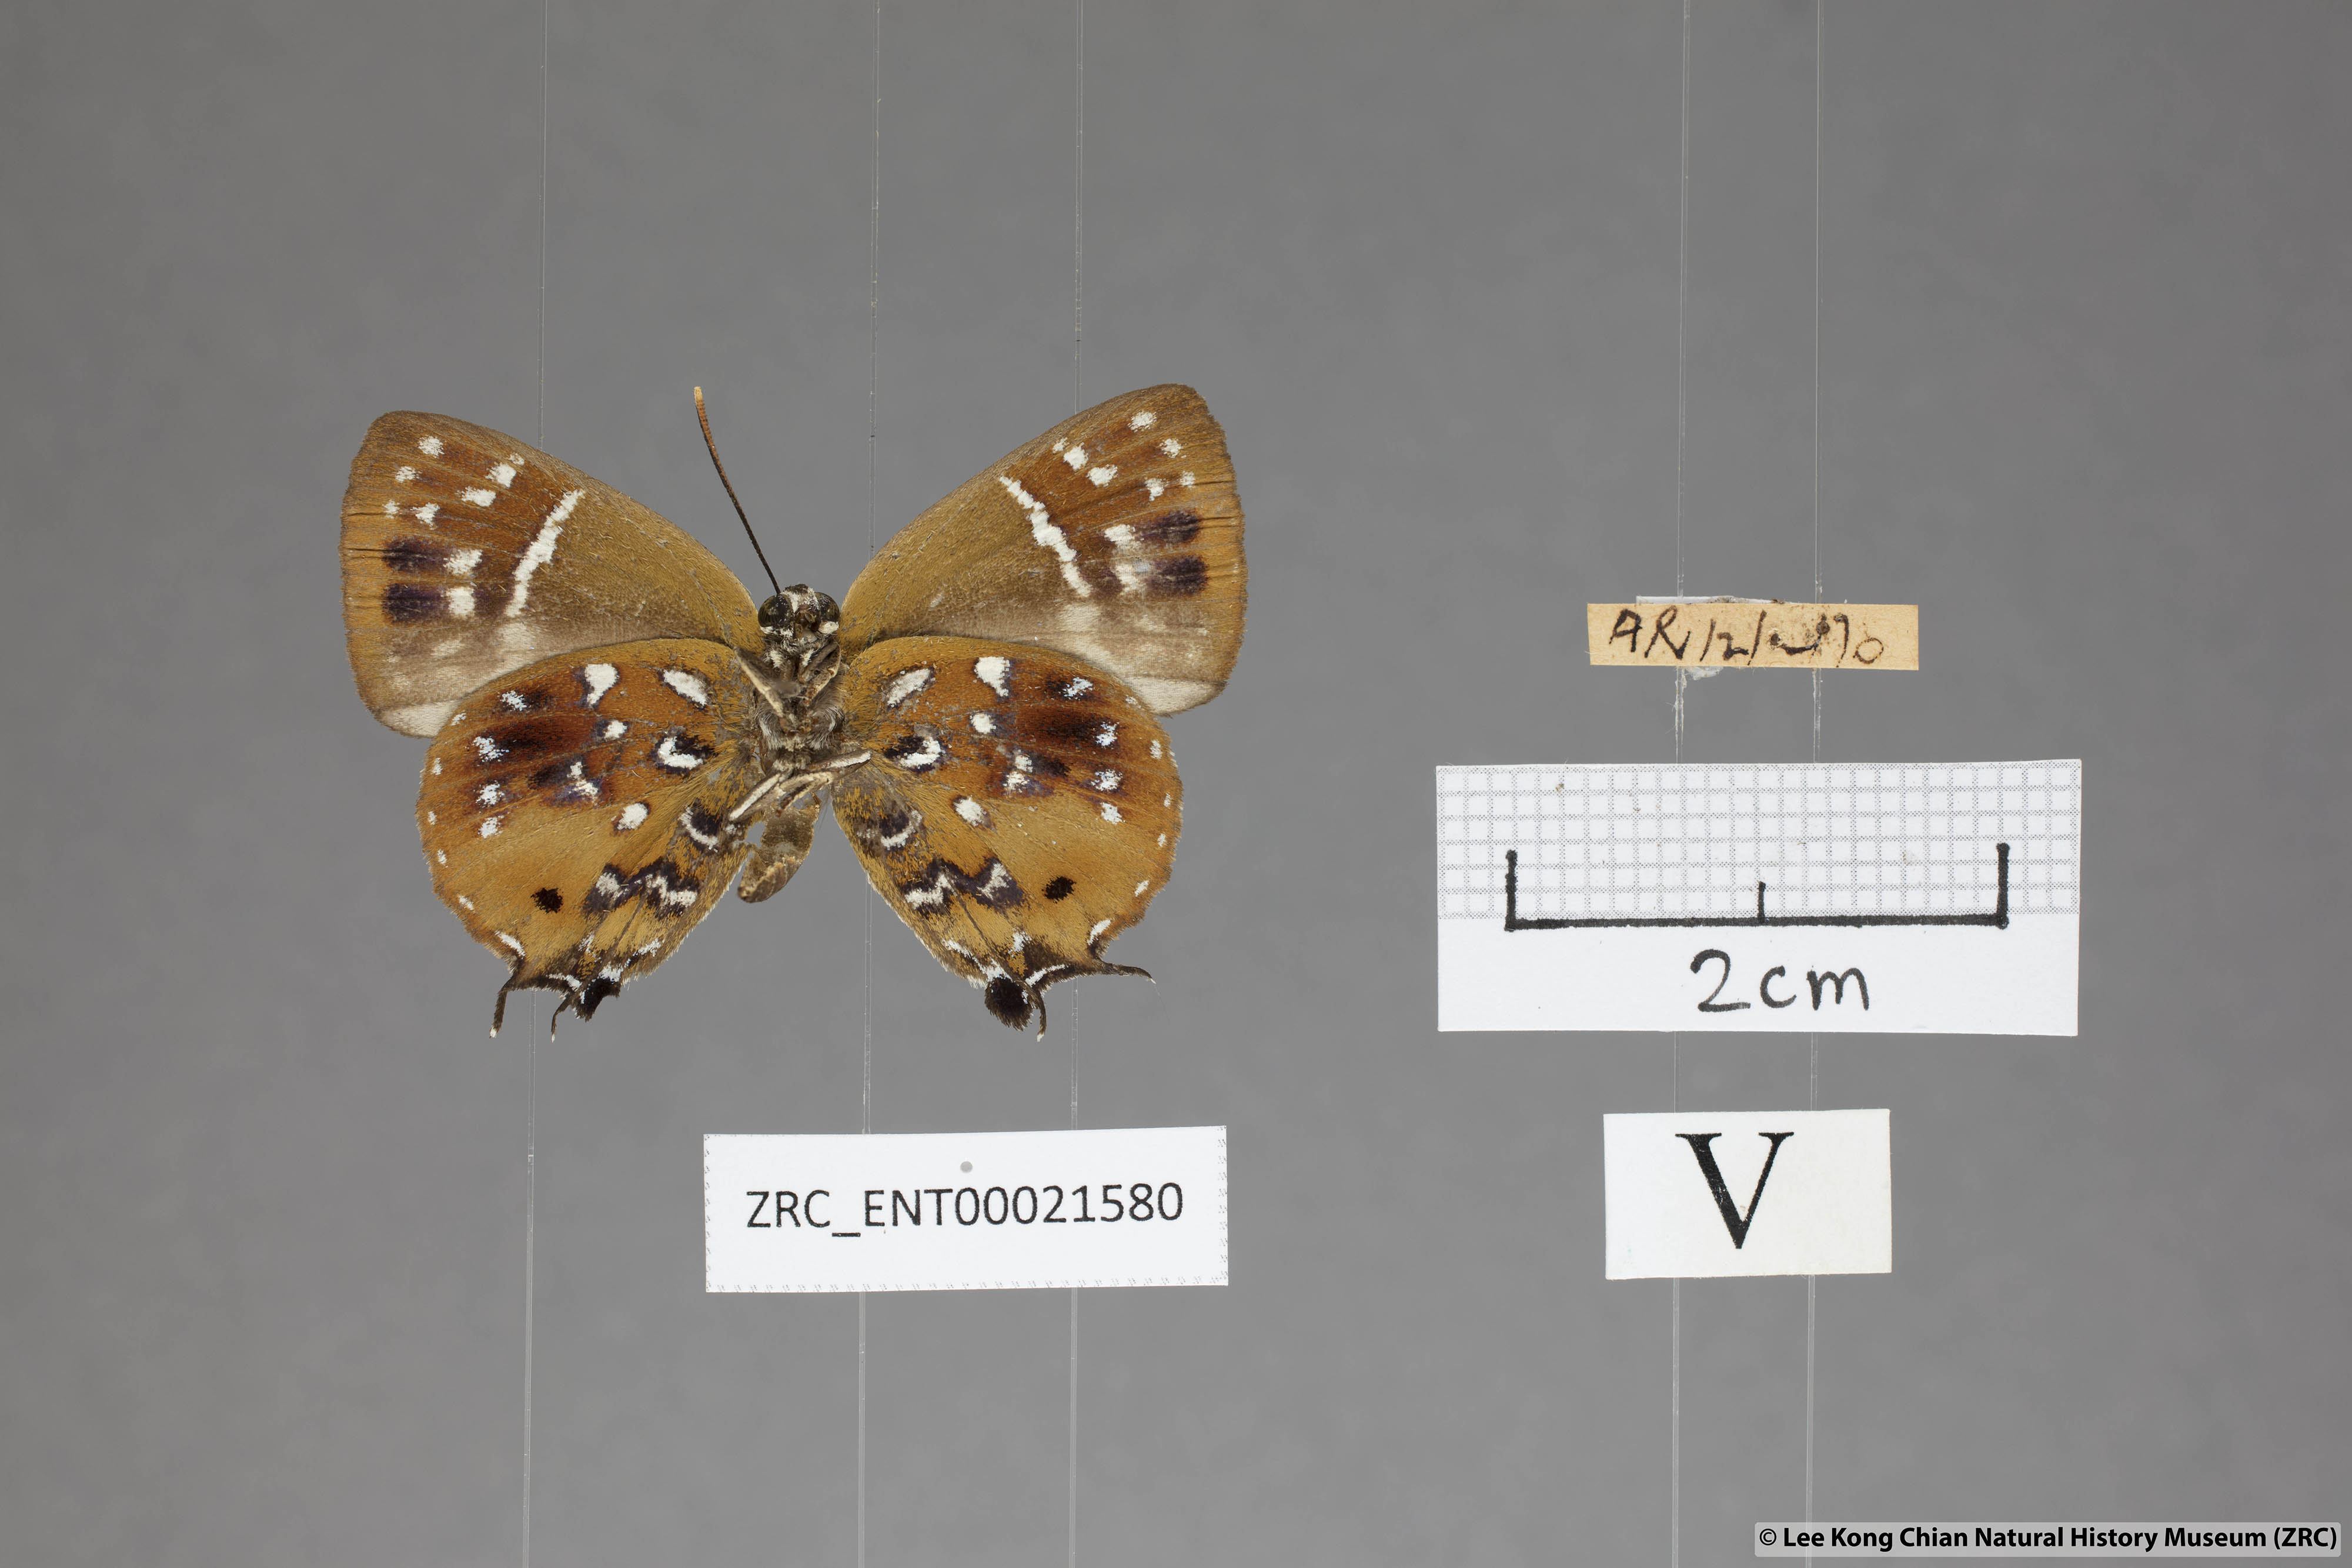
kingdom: Animalia
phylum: Arthropoda
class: Insecta
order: Lepidoptera
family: Lycaenidae
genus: Iraota
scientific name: Iraota
